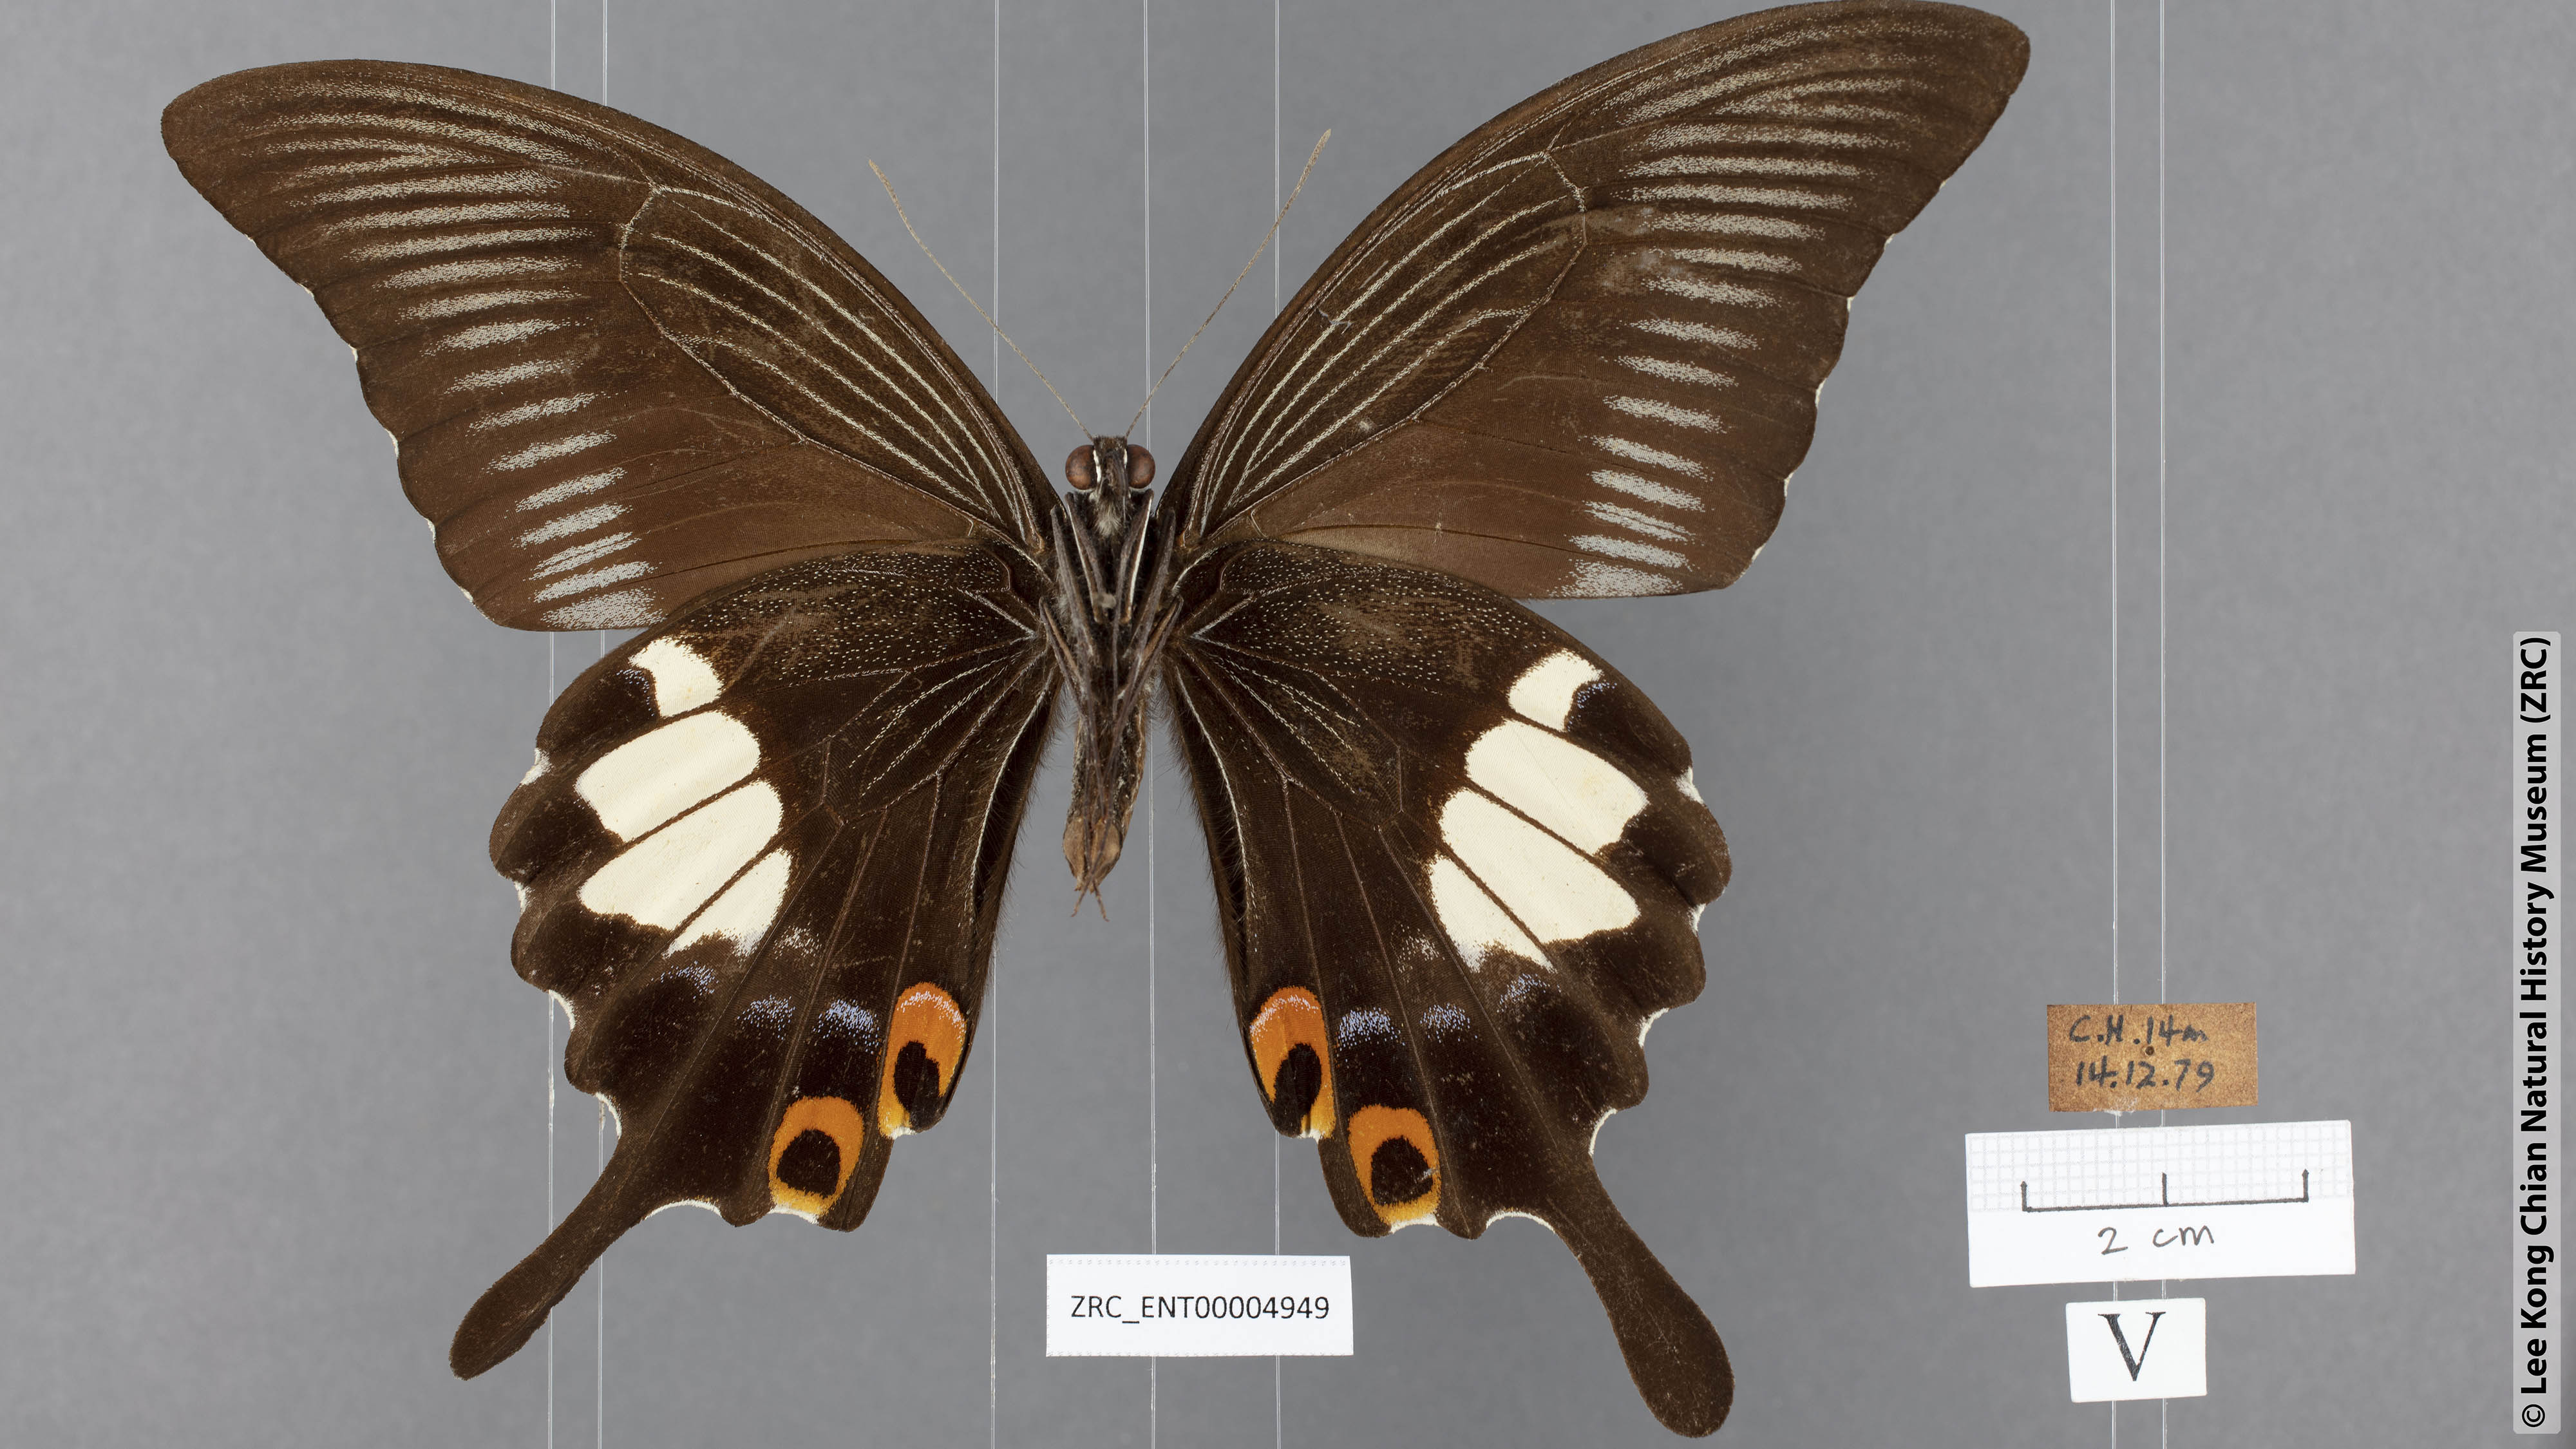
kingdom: Animalia
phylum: Arthropoda
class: Insecta
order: Lepidoptera
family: Papilionidae
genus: Papilio
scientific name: Papilio iswara
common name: Great helen swallowtail
